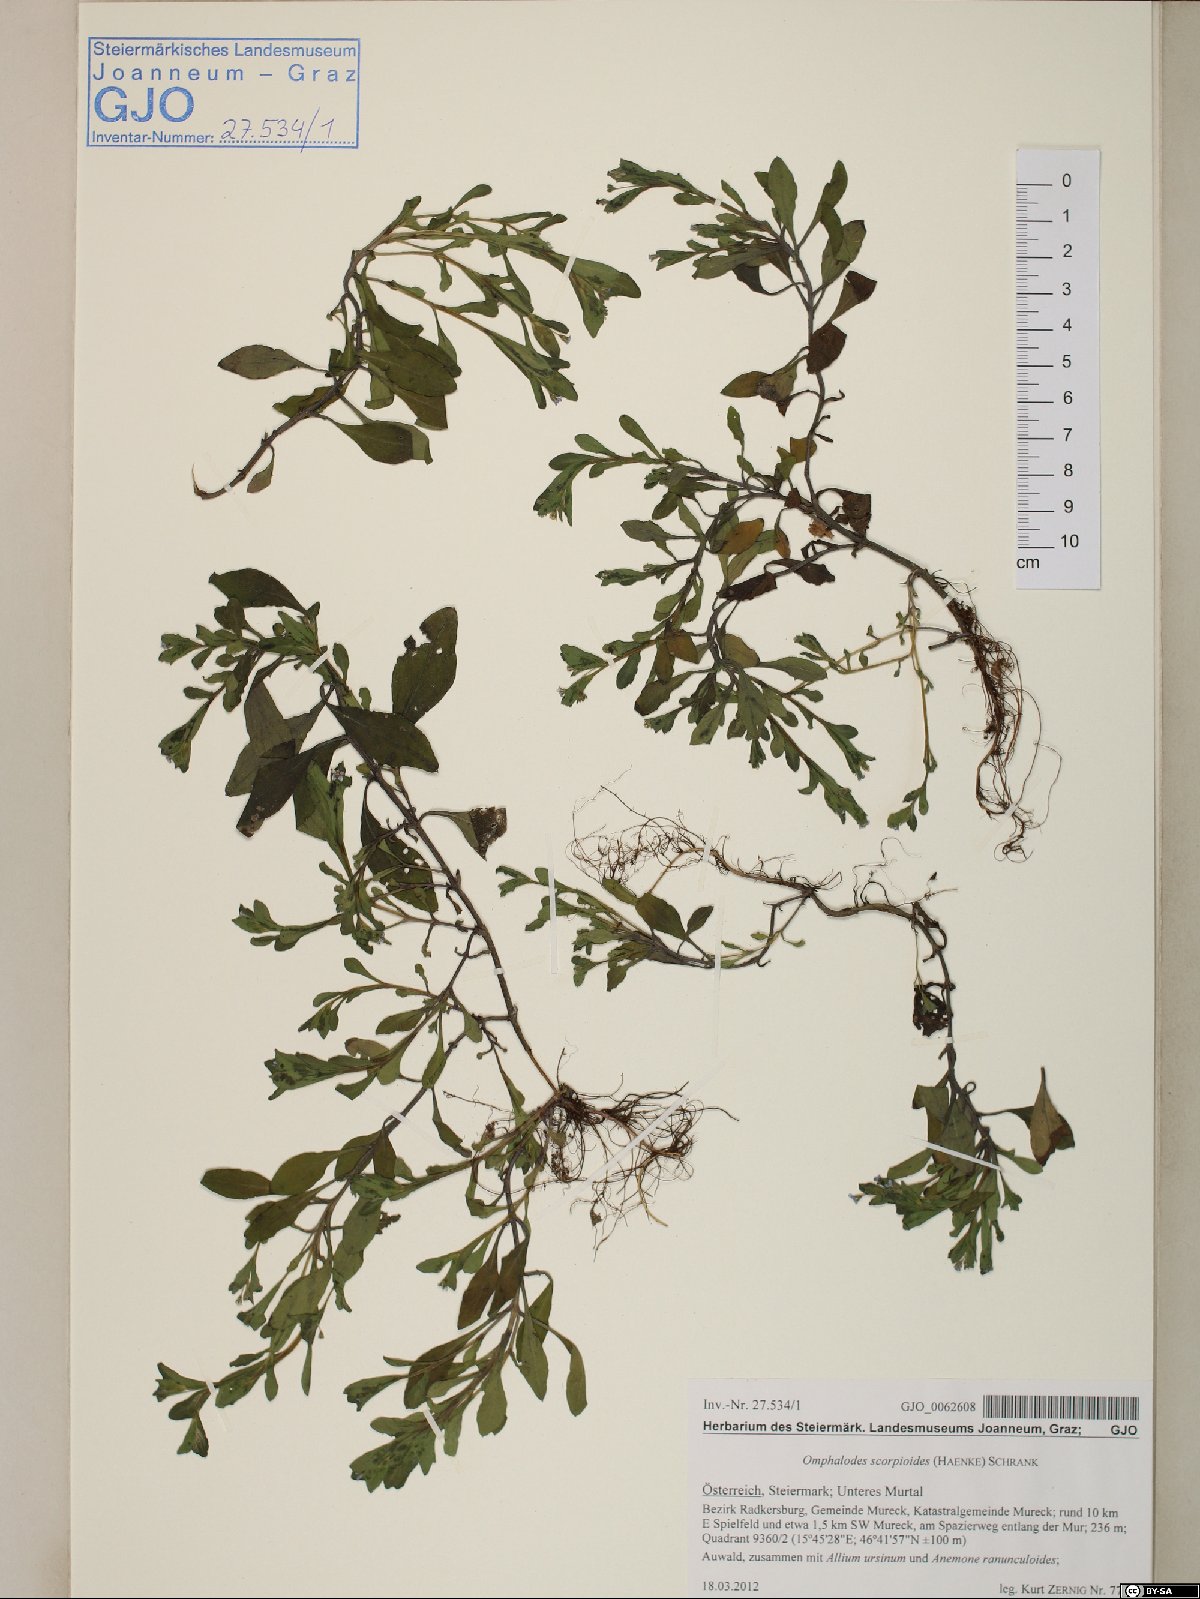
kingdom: Plantae
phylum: Tracheophyta
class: Magnoliopsida
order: Boraginales
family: Boraginaceae
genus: Memoremea
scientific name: Memoremea scorpioides
